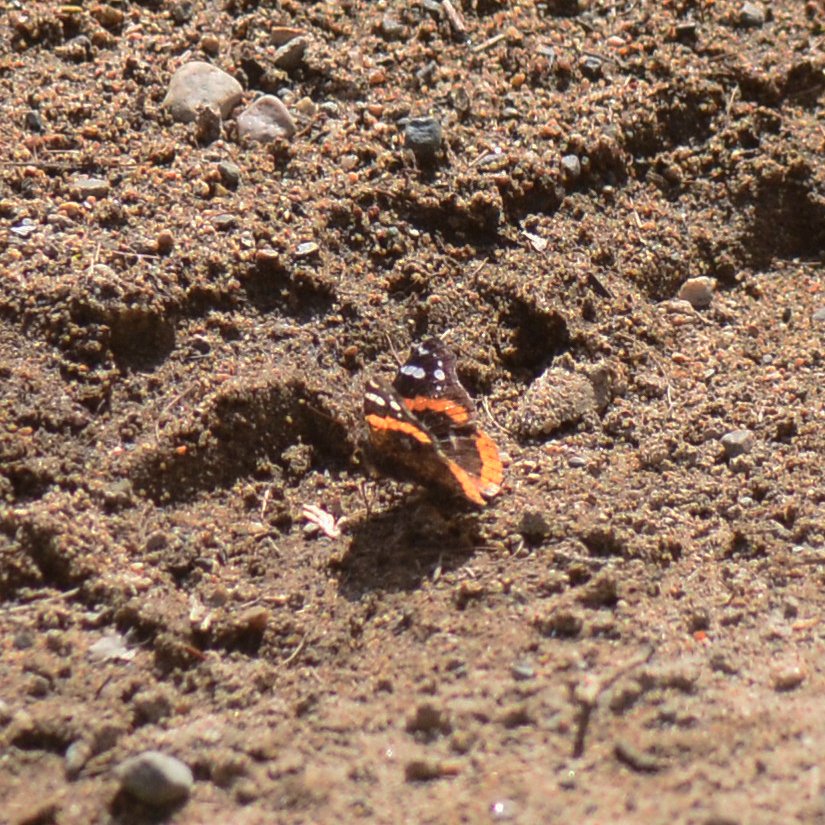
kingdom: Animalia
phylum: Arthropoda
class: Insecta
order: Lepidoptera
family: Nymphalidae
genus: Vanessa
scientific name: Vanessa atalanta
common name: Red Admiral
